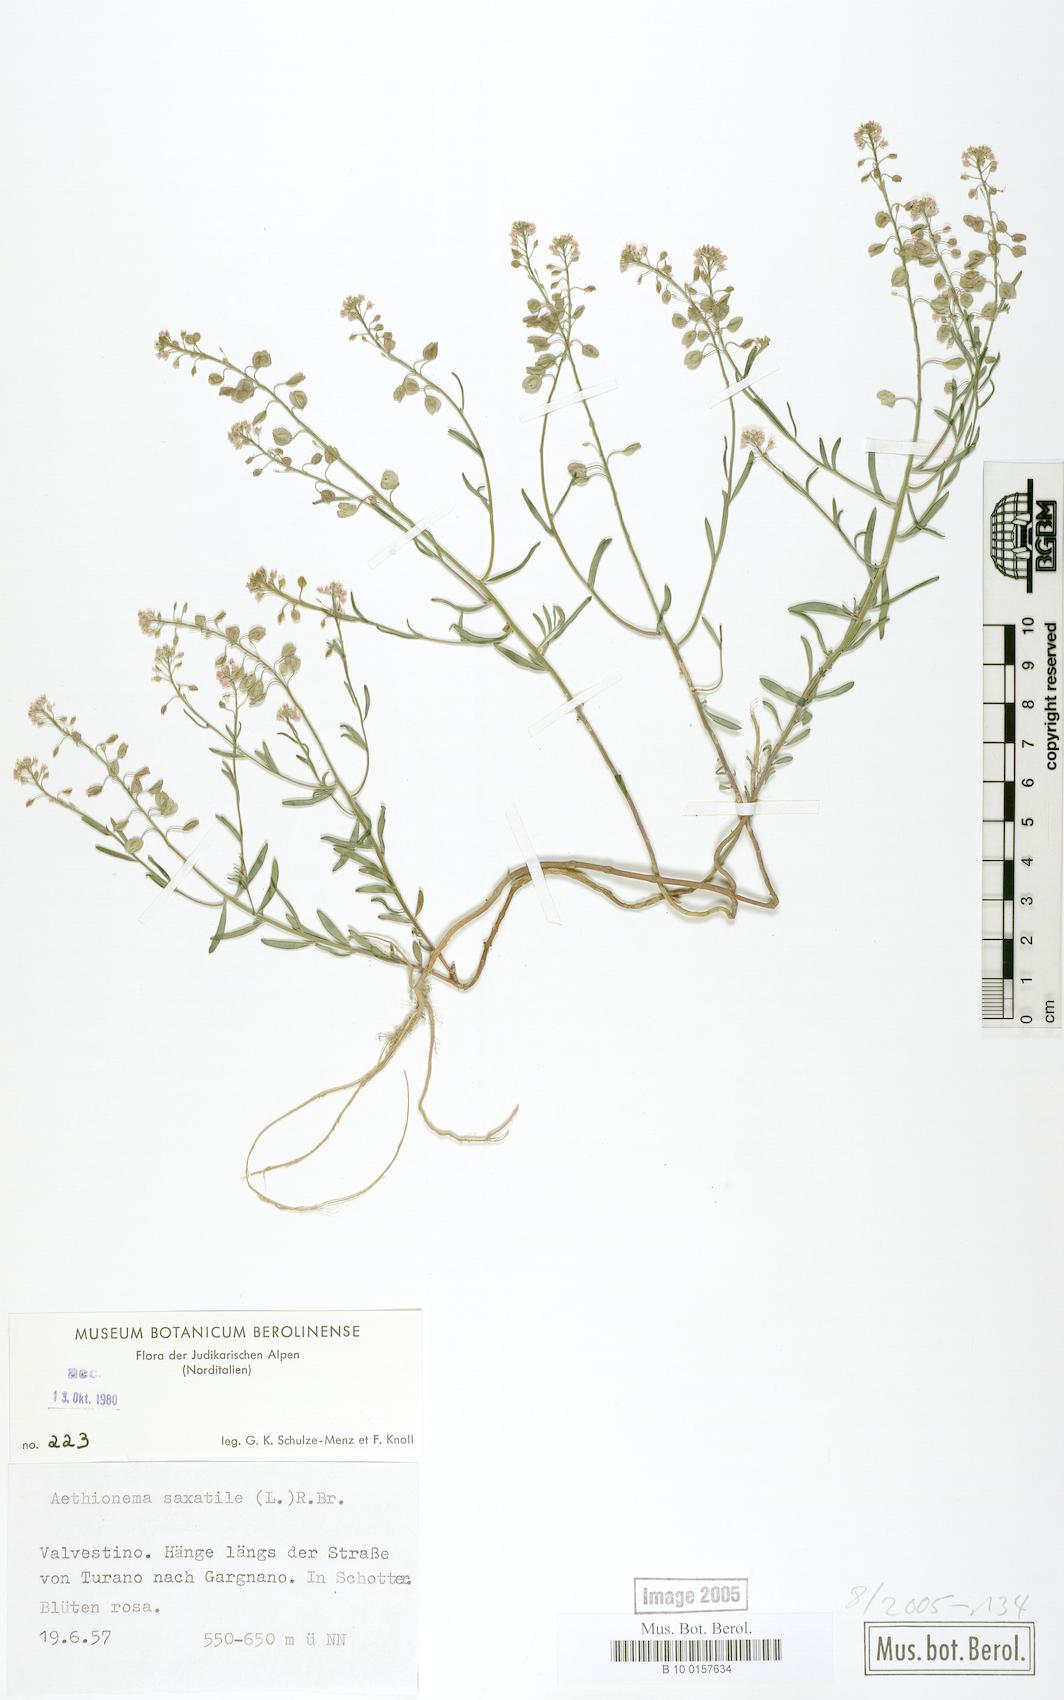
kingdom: Plantae
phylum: Tracheophyta
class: Magnoliopsida
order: Brassicales
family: Brassicaceae
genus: Aethionema
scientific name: Aethionema saxatile
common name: Burnt candytuft
